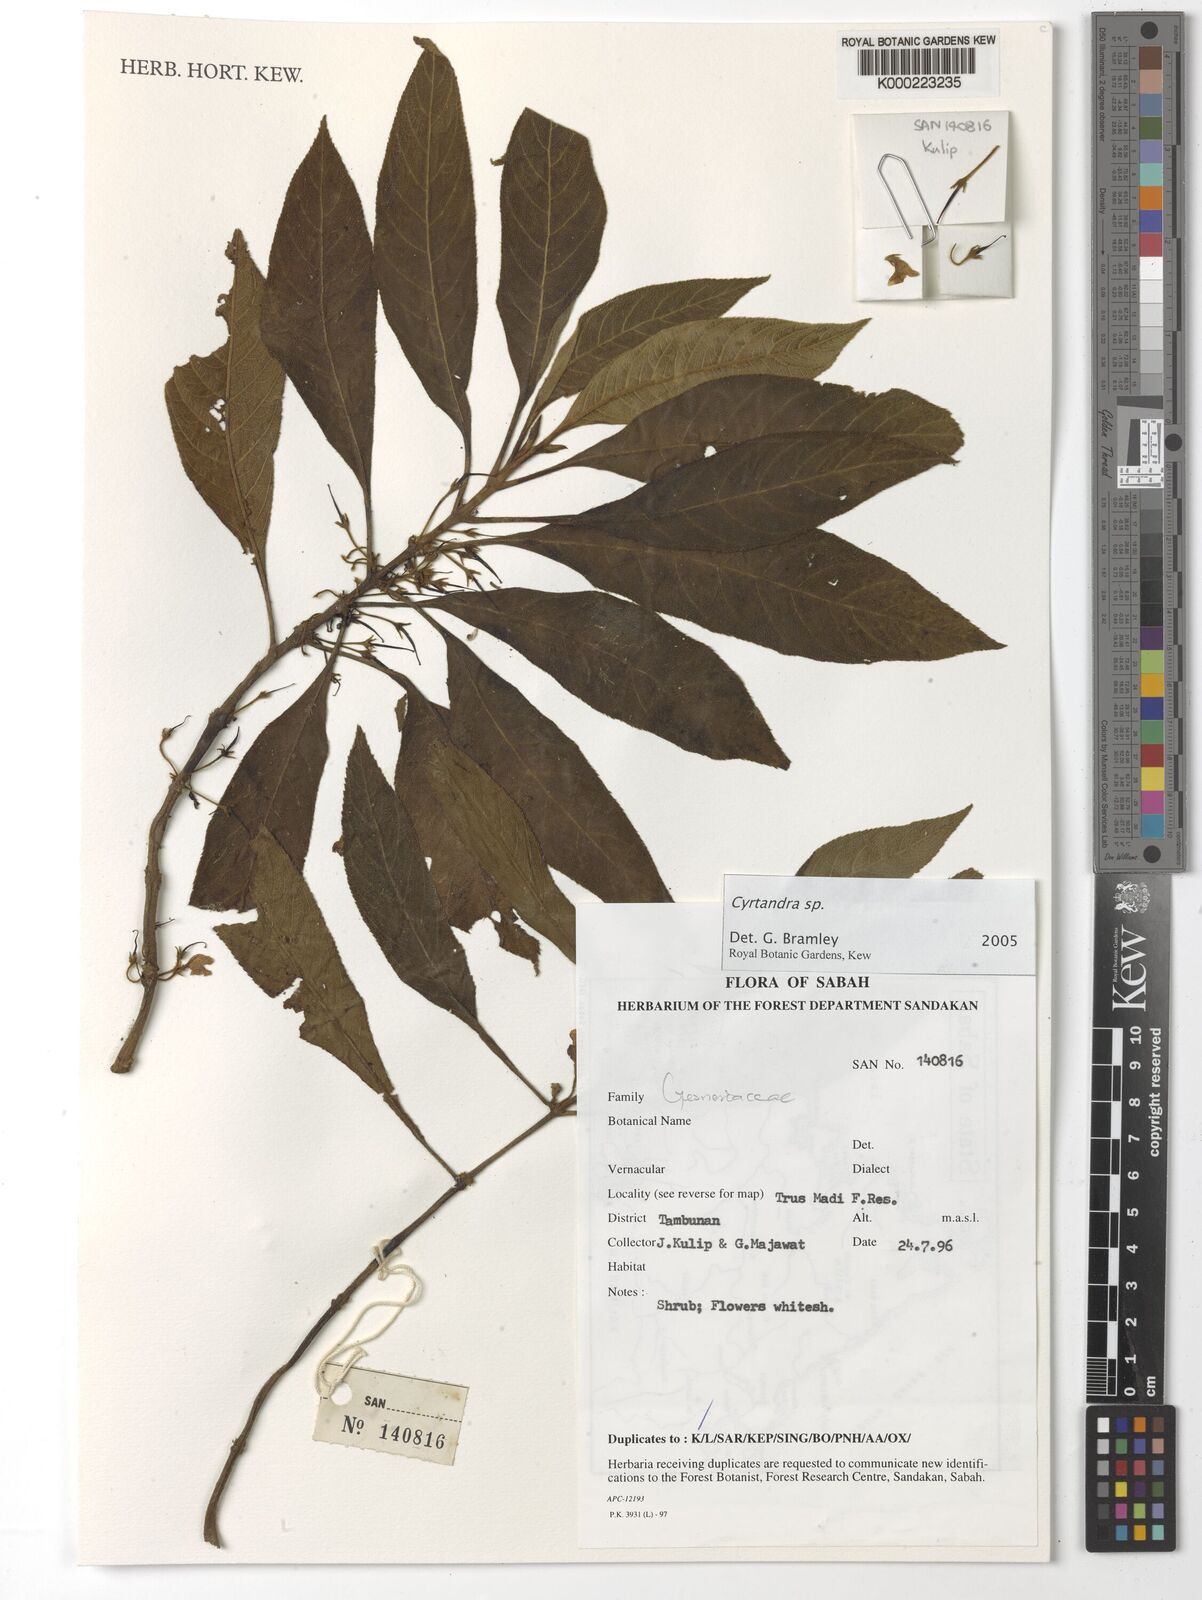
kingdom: Plantae
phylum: Tracheophyta
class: Magnoliopsida
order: Lamiales
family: Gesneriaceae
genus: Cyrtandra
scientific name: Cyrtandra
